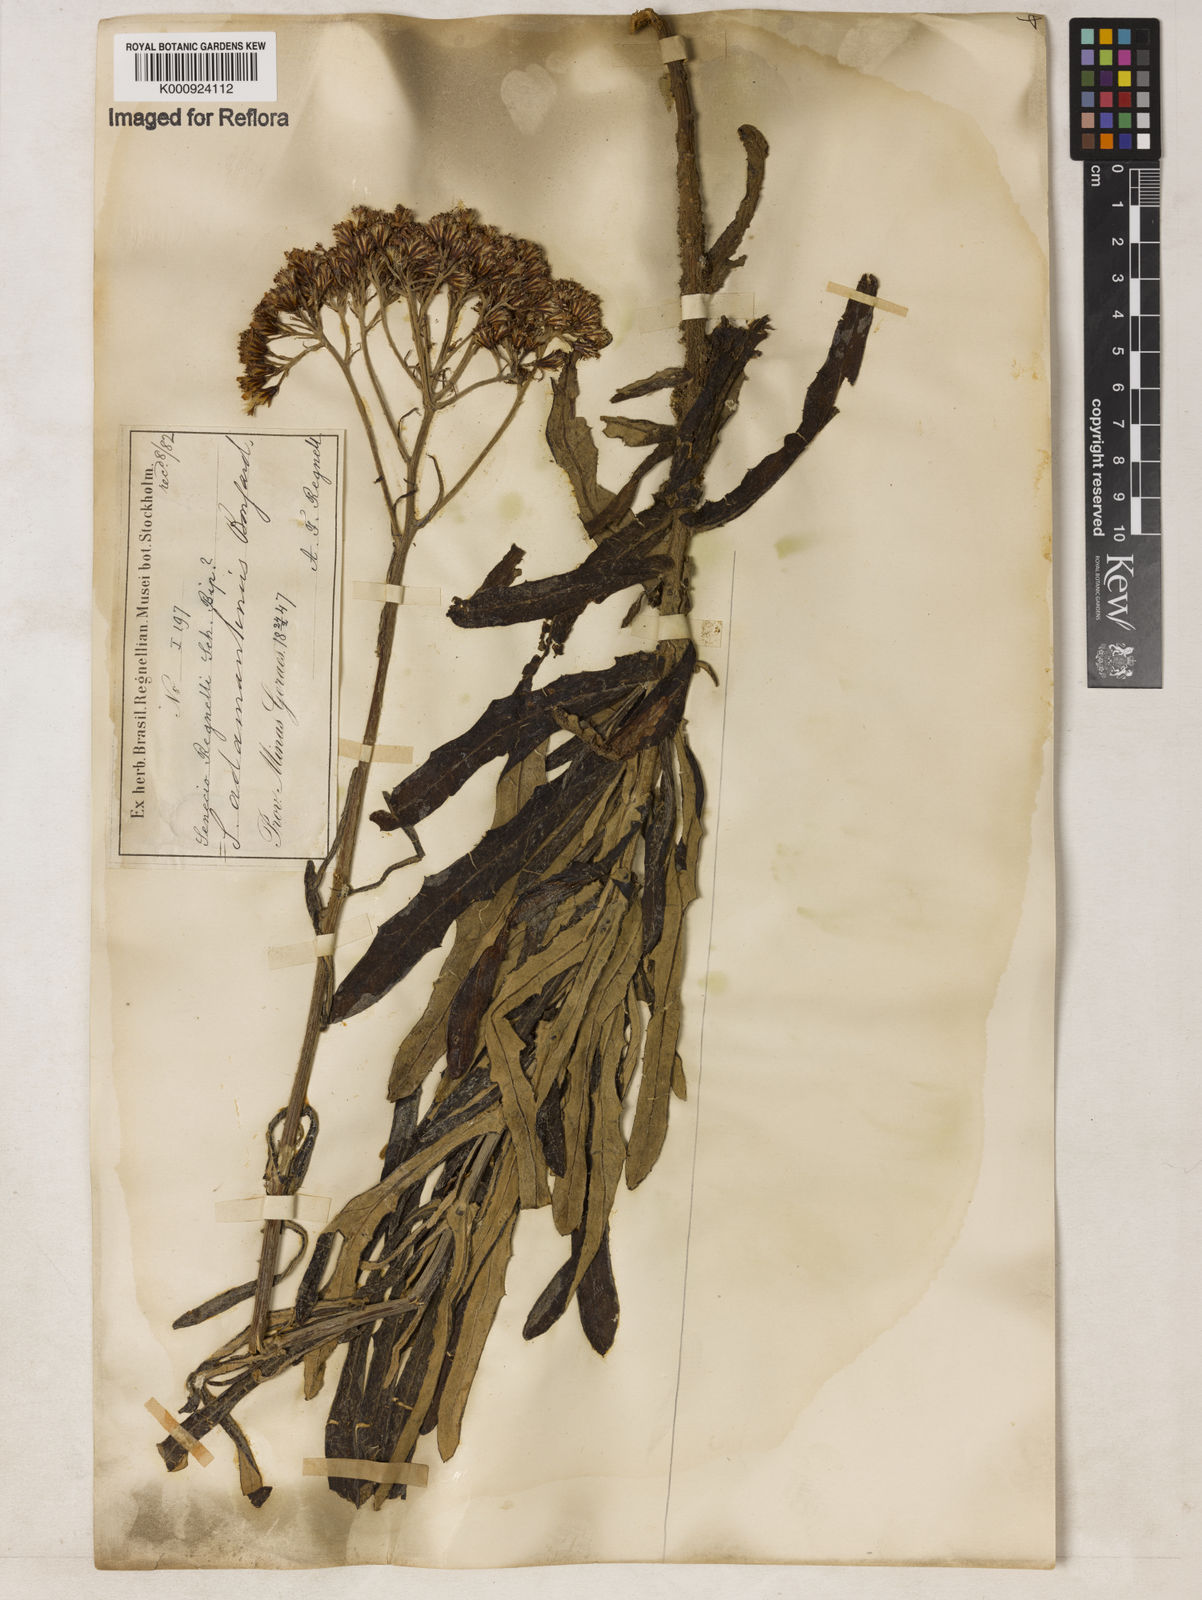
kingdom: Plantae
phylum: Tracheophyta
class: Magnoliopsida
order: Asterales
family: Asteraceae
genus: Senecio
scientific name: Senecio
